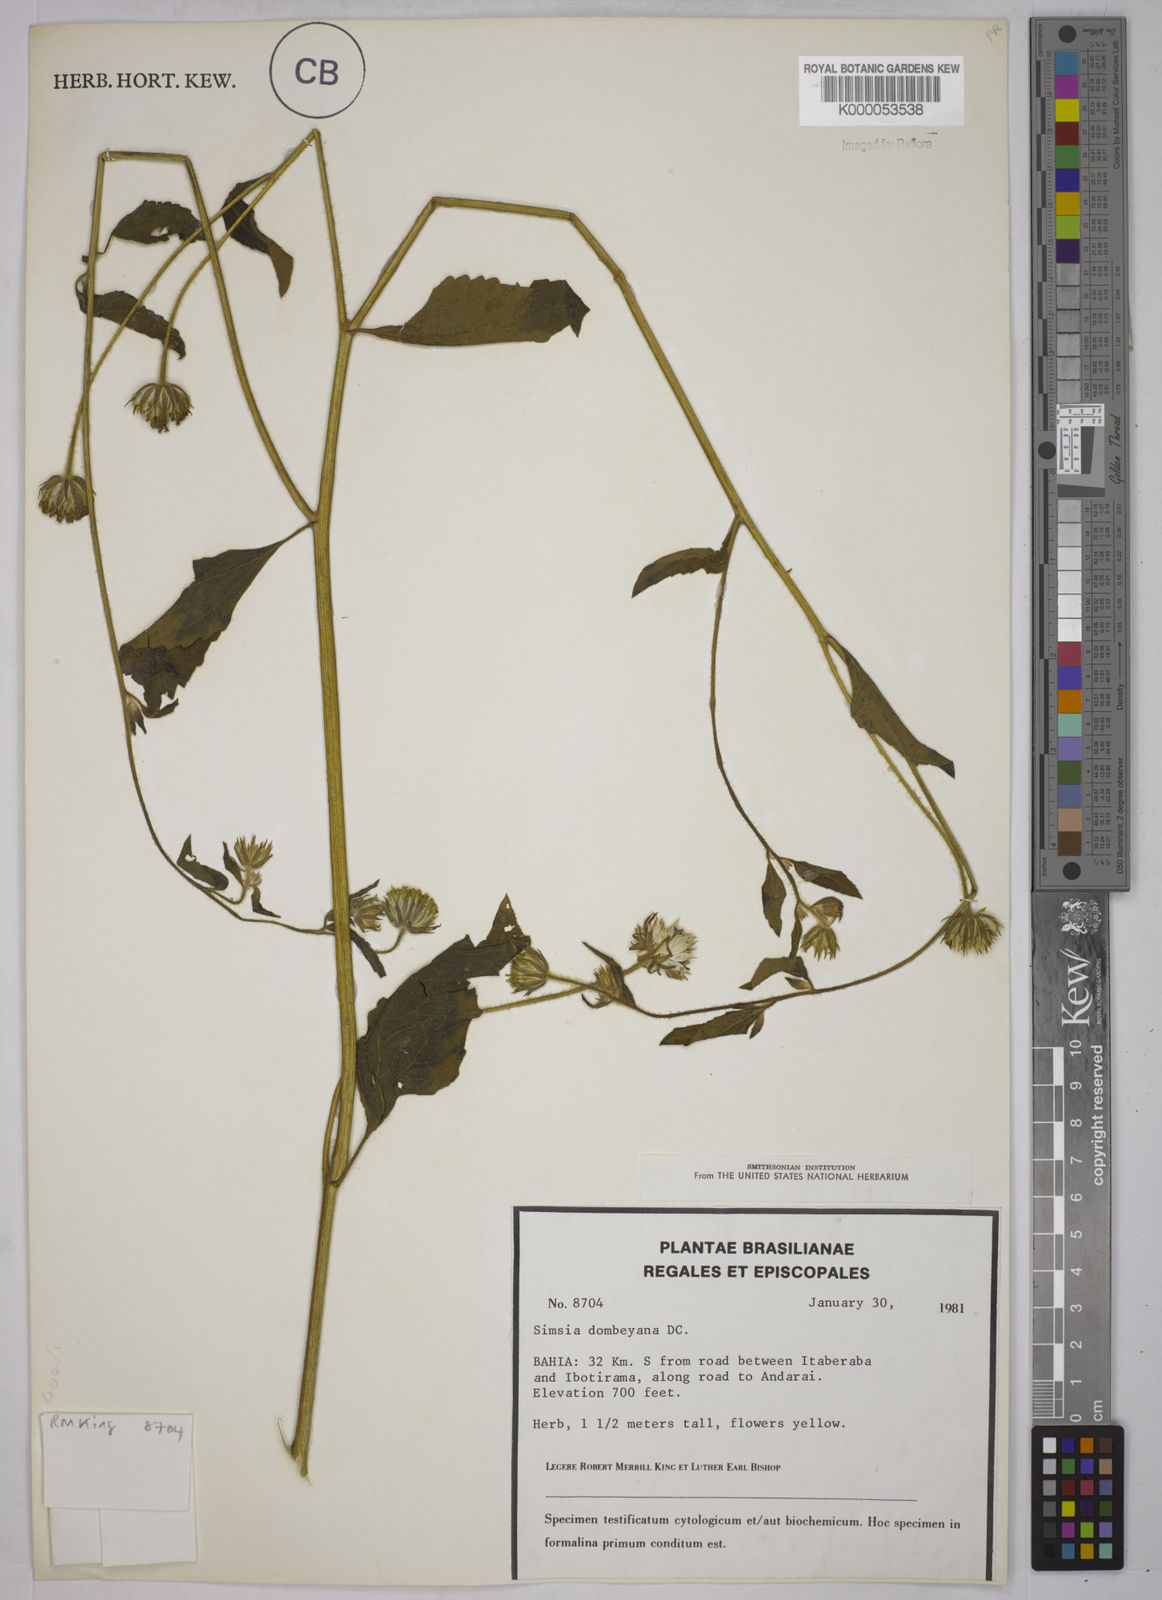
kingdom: Plantae
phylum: Tracheophyta
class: Magnoliopsida
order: Asterales
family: Asteraceae
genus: Simsia
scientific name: Simsia dombeyana
